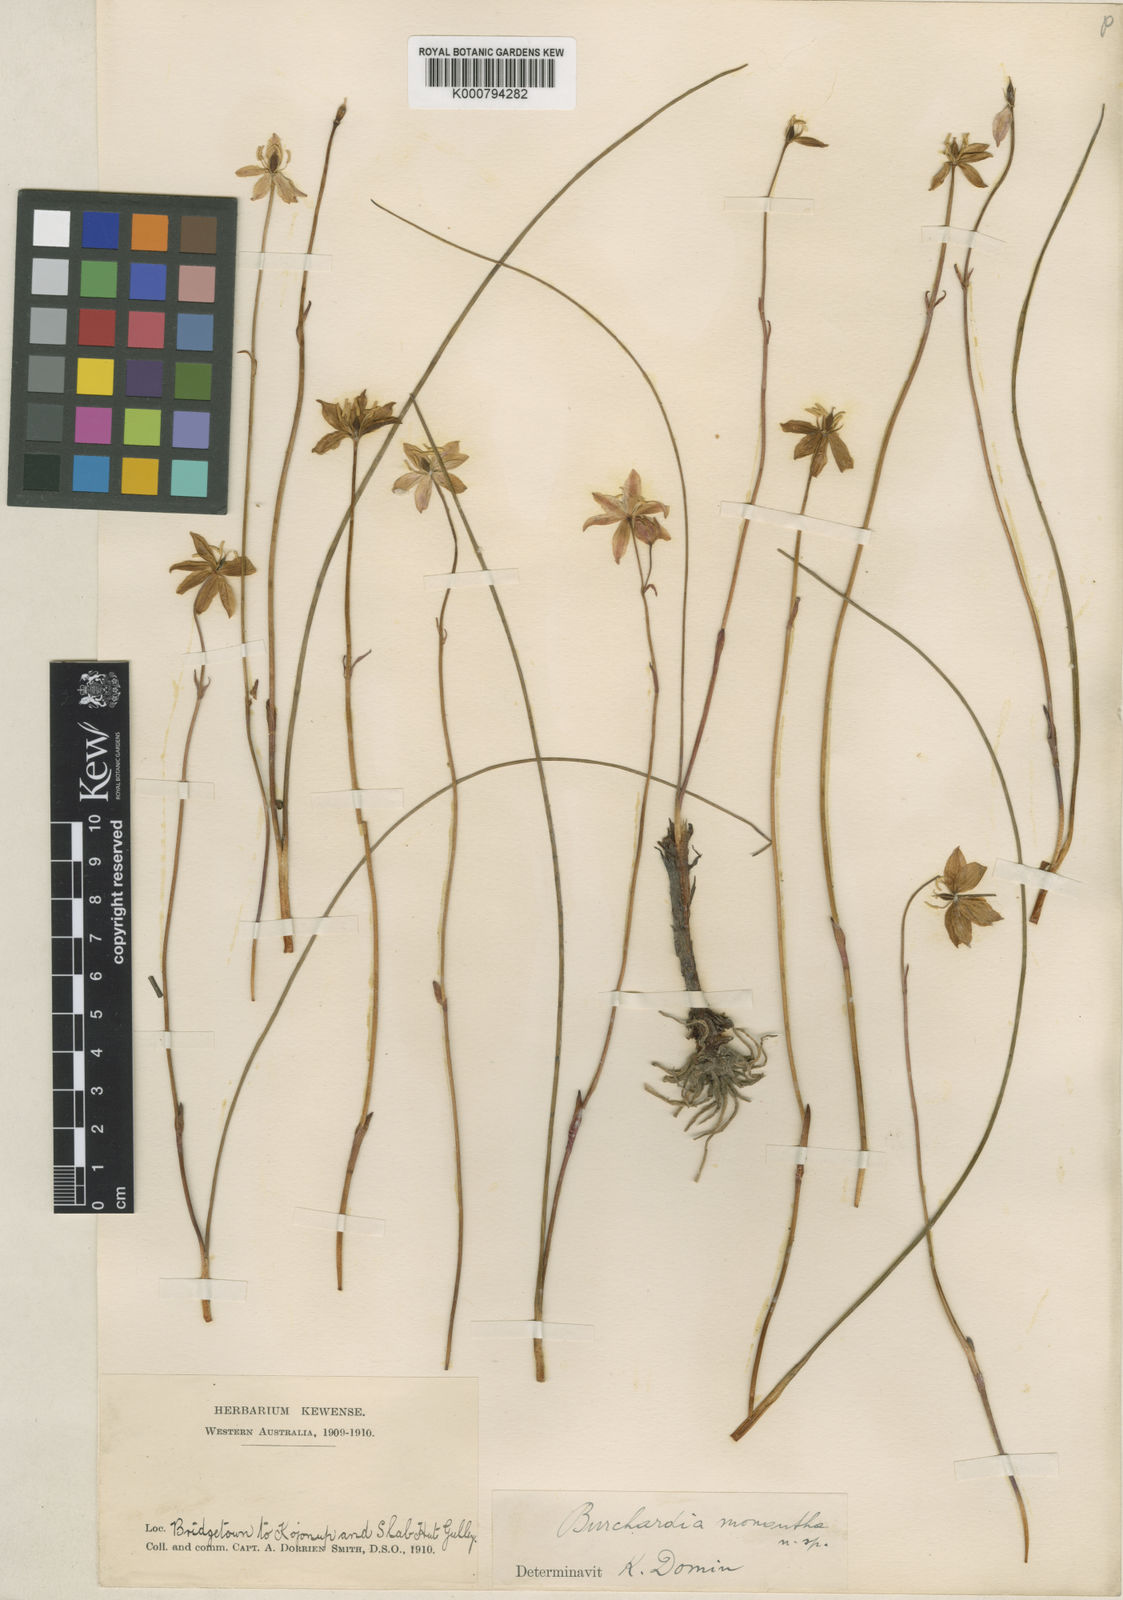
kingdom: Plantae
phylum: Tracheophyta
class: Liliopsida
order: Liliales
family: Colchicaceae
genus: Burchardia
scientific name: Burchardia monantha
